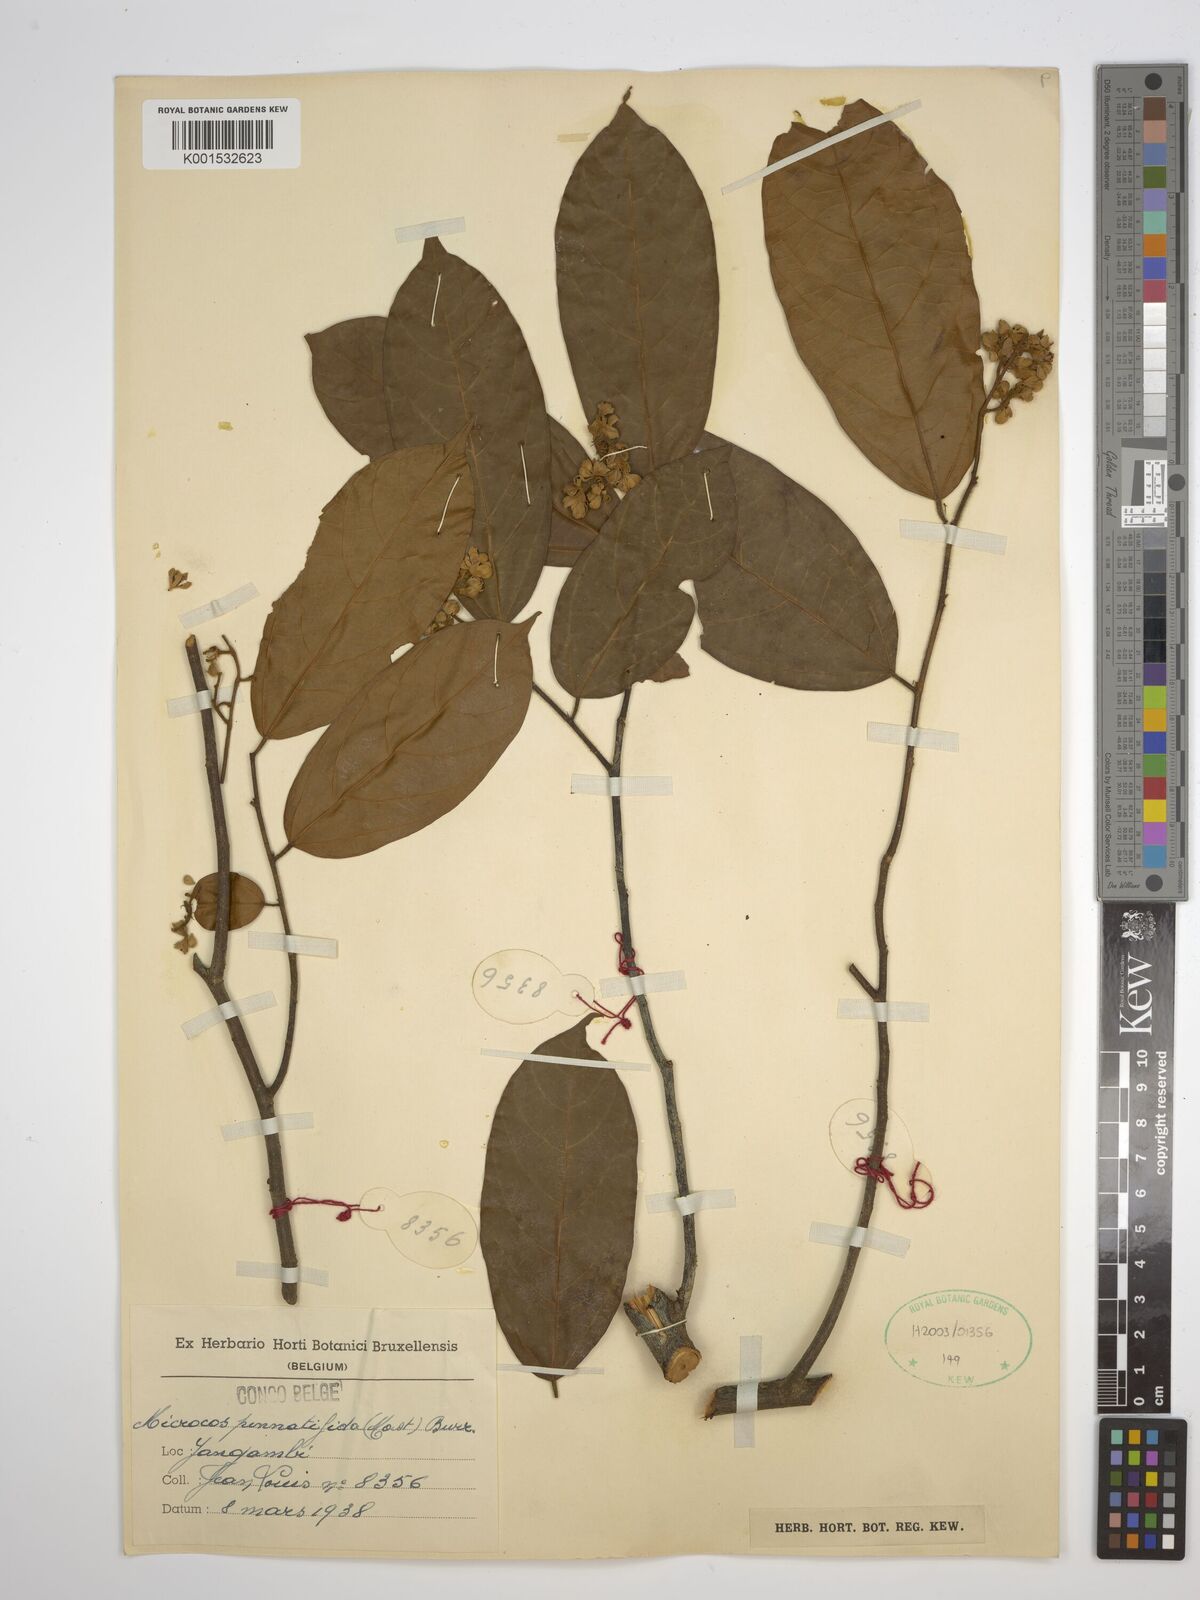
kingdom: Plantae
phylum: Tracheophyta
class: Magnoliopsida
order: Malvales
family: Malvaceae
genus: Microcos
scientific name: Microcos pinnatifida
